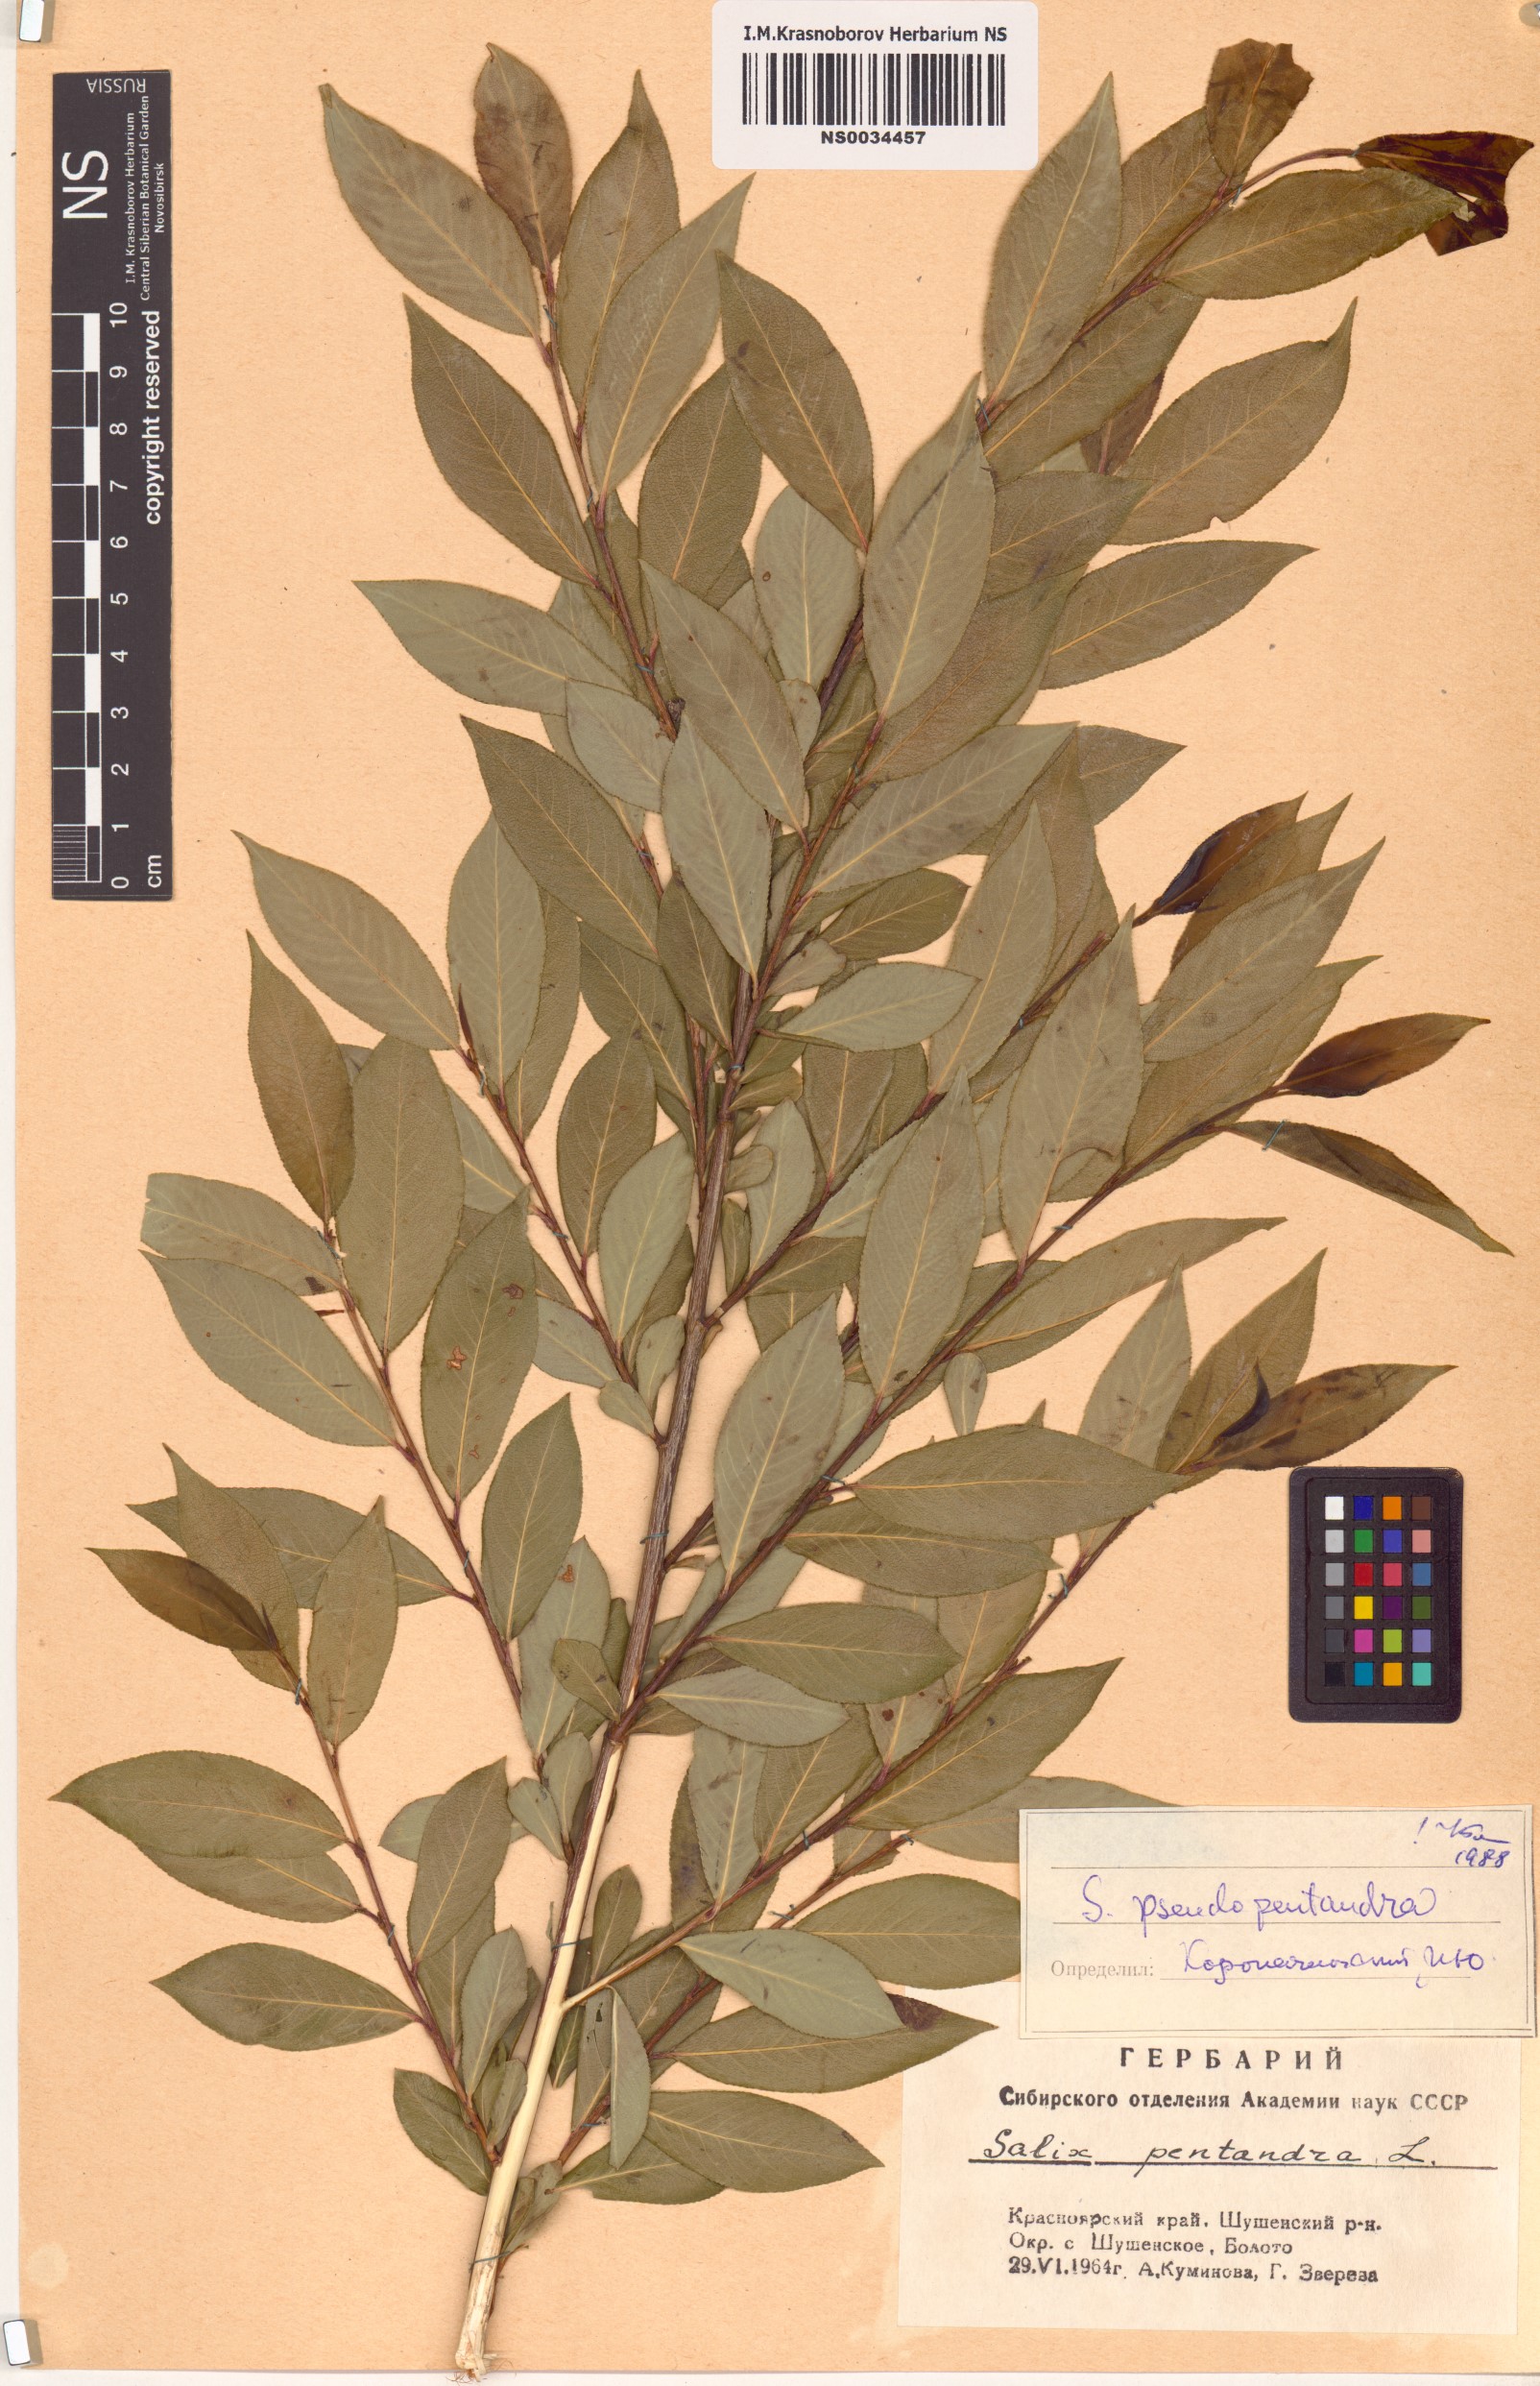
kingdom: Plantae
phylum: Tracheophyta
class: Magnoliopsida
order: Malpighiales
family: Salicaceae
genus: Salix
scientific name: Salix pseudopentandra
